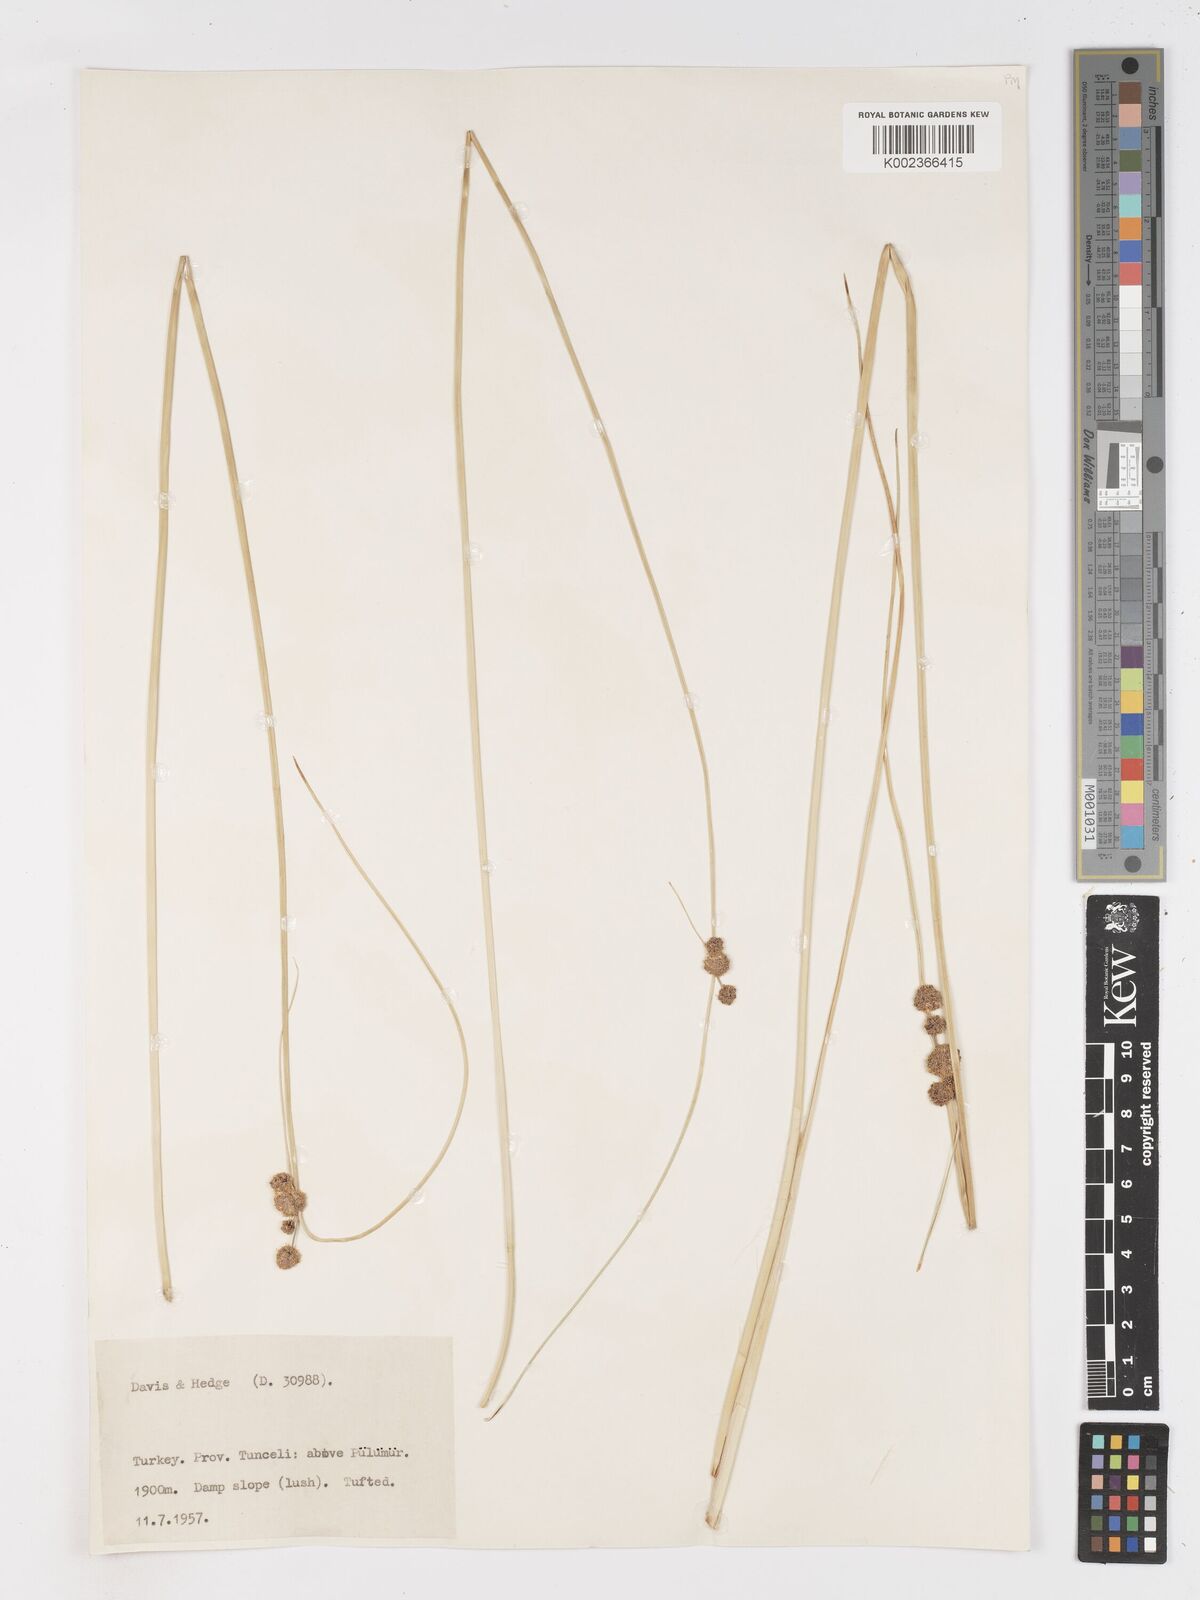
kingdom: Plantae
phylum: Tracheophyta
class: Liliopsida
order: Poales
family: Cyperaceae
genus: Scirpoides
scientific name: Scirpoides holoschoenus
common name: Round-headed club-rush
